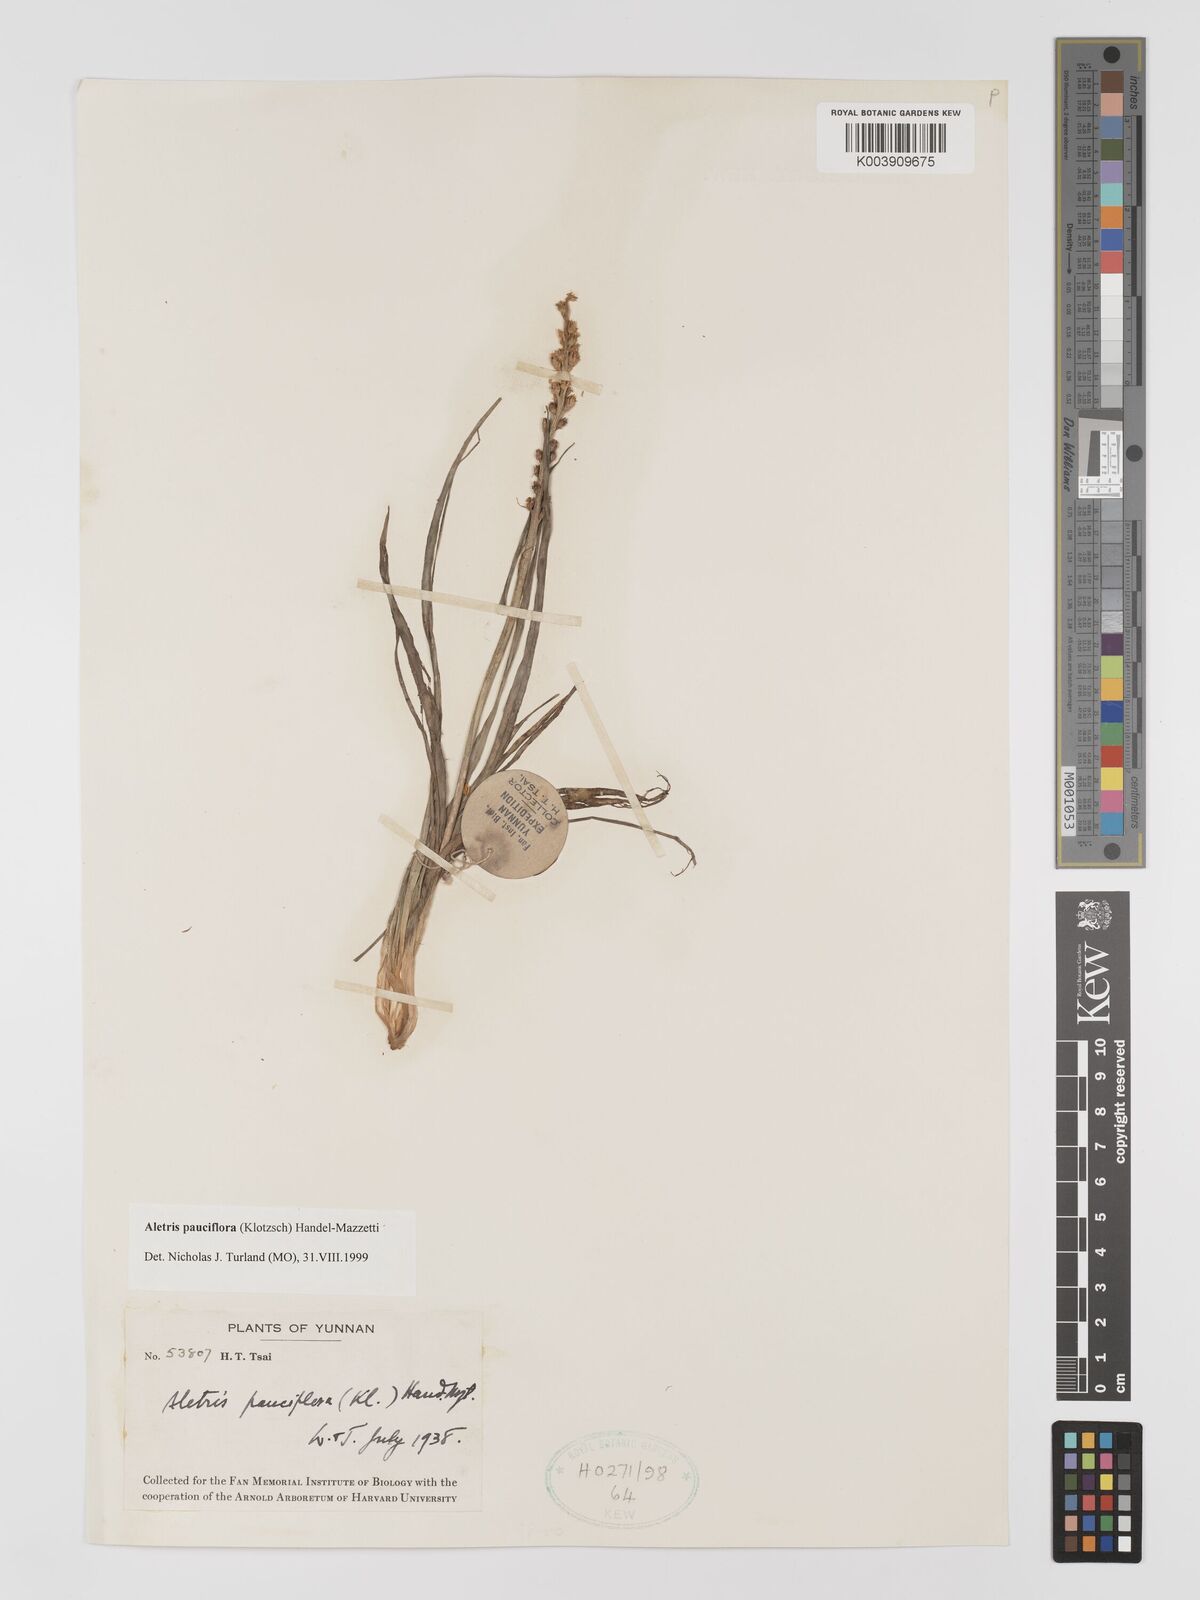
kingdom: Plantae
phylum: Tracheophyta
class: Liliopsida
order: Dioscoreales
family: Nartheciaceae
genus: Aletris
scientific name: Aletris pauciflora
